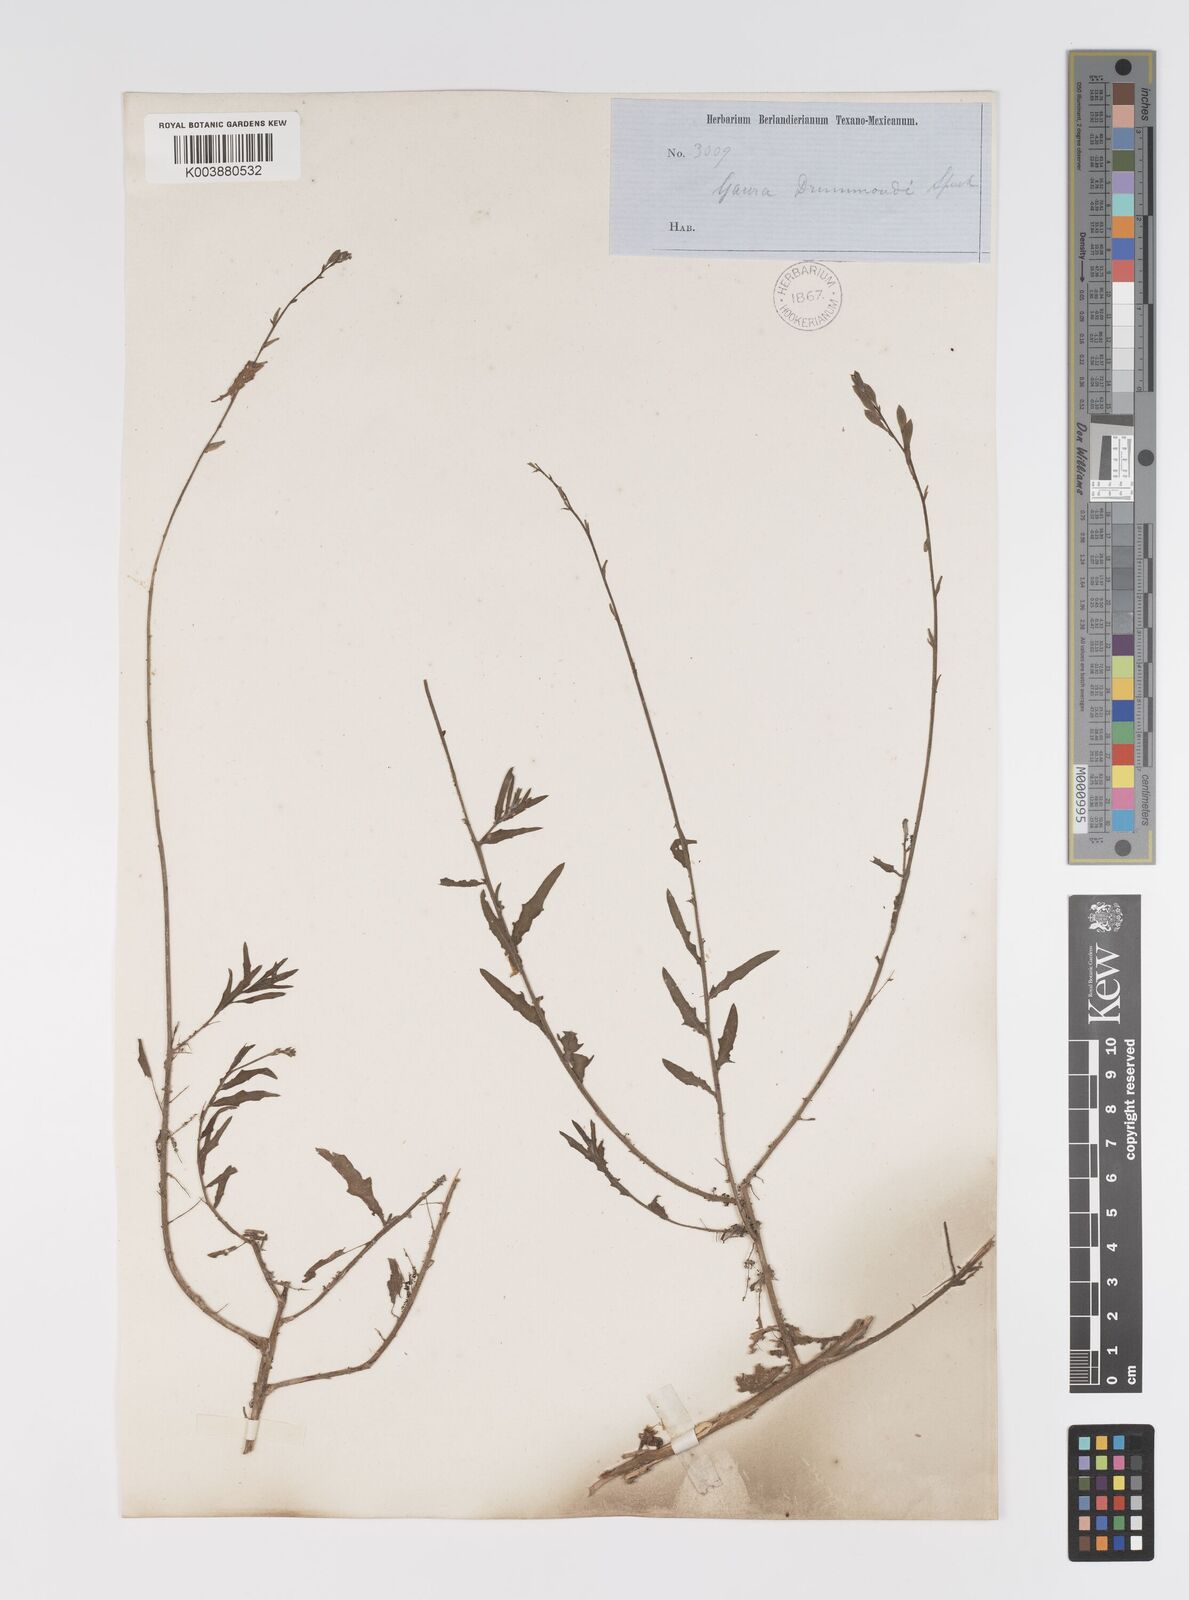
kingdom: Plantae
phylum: Tracheophyta
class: Magnoliopsida
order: Myrtales
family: Onagraceae
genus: Oenothera
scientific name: Oenothera hispida
